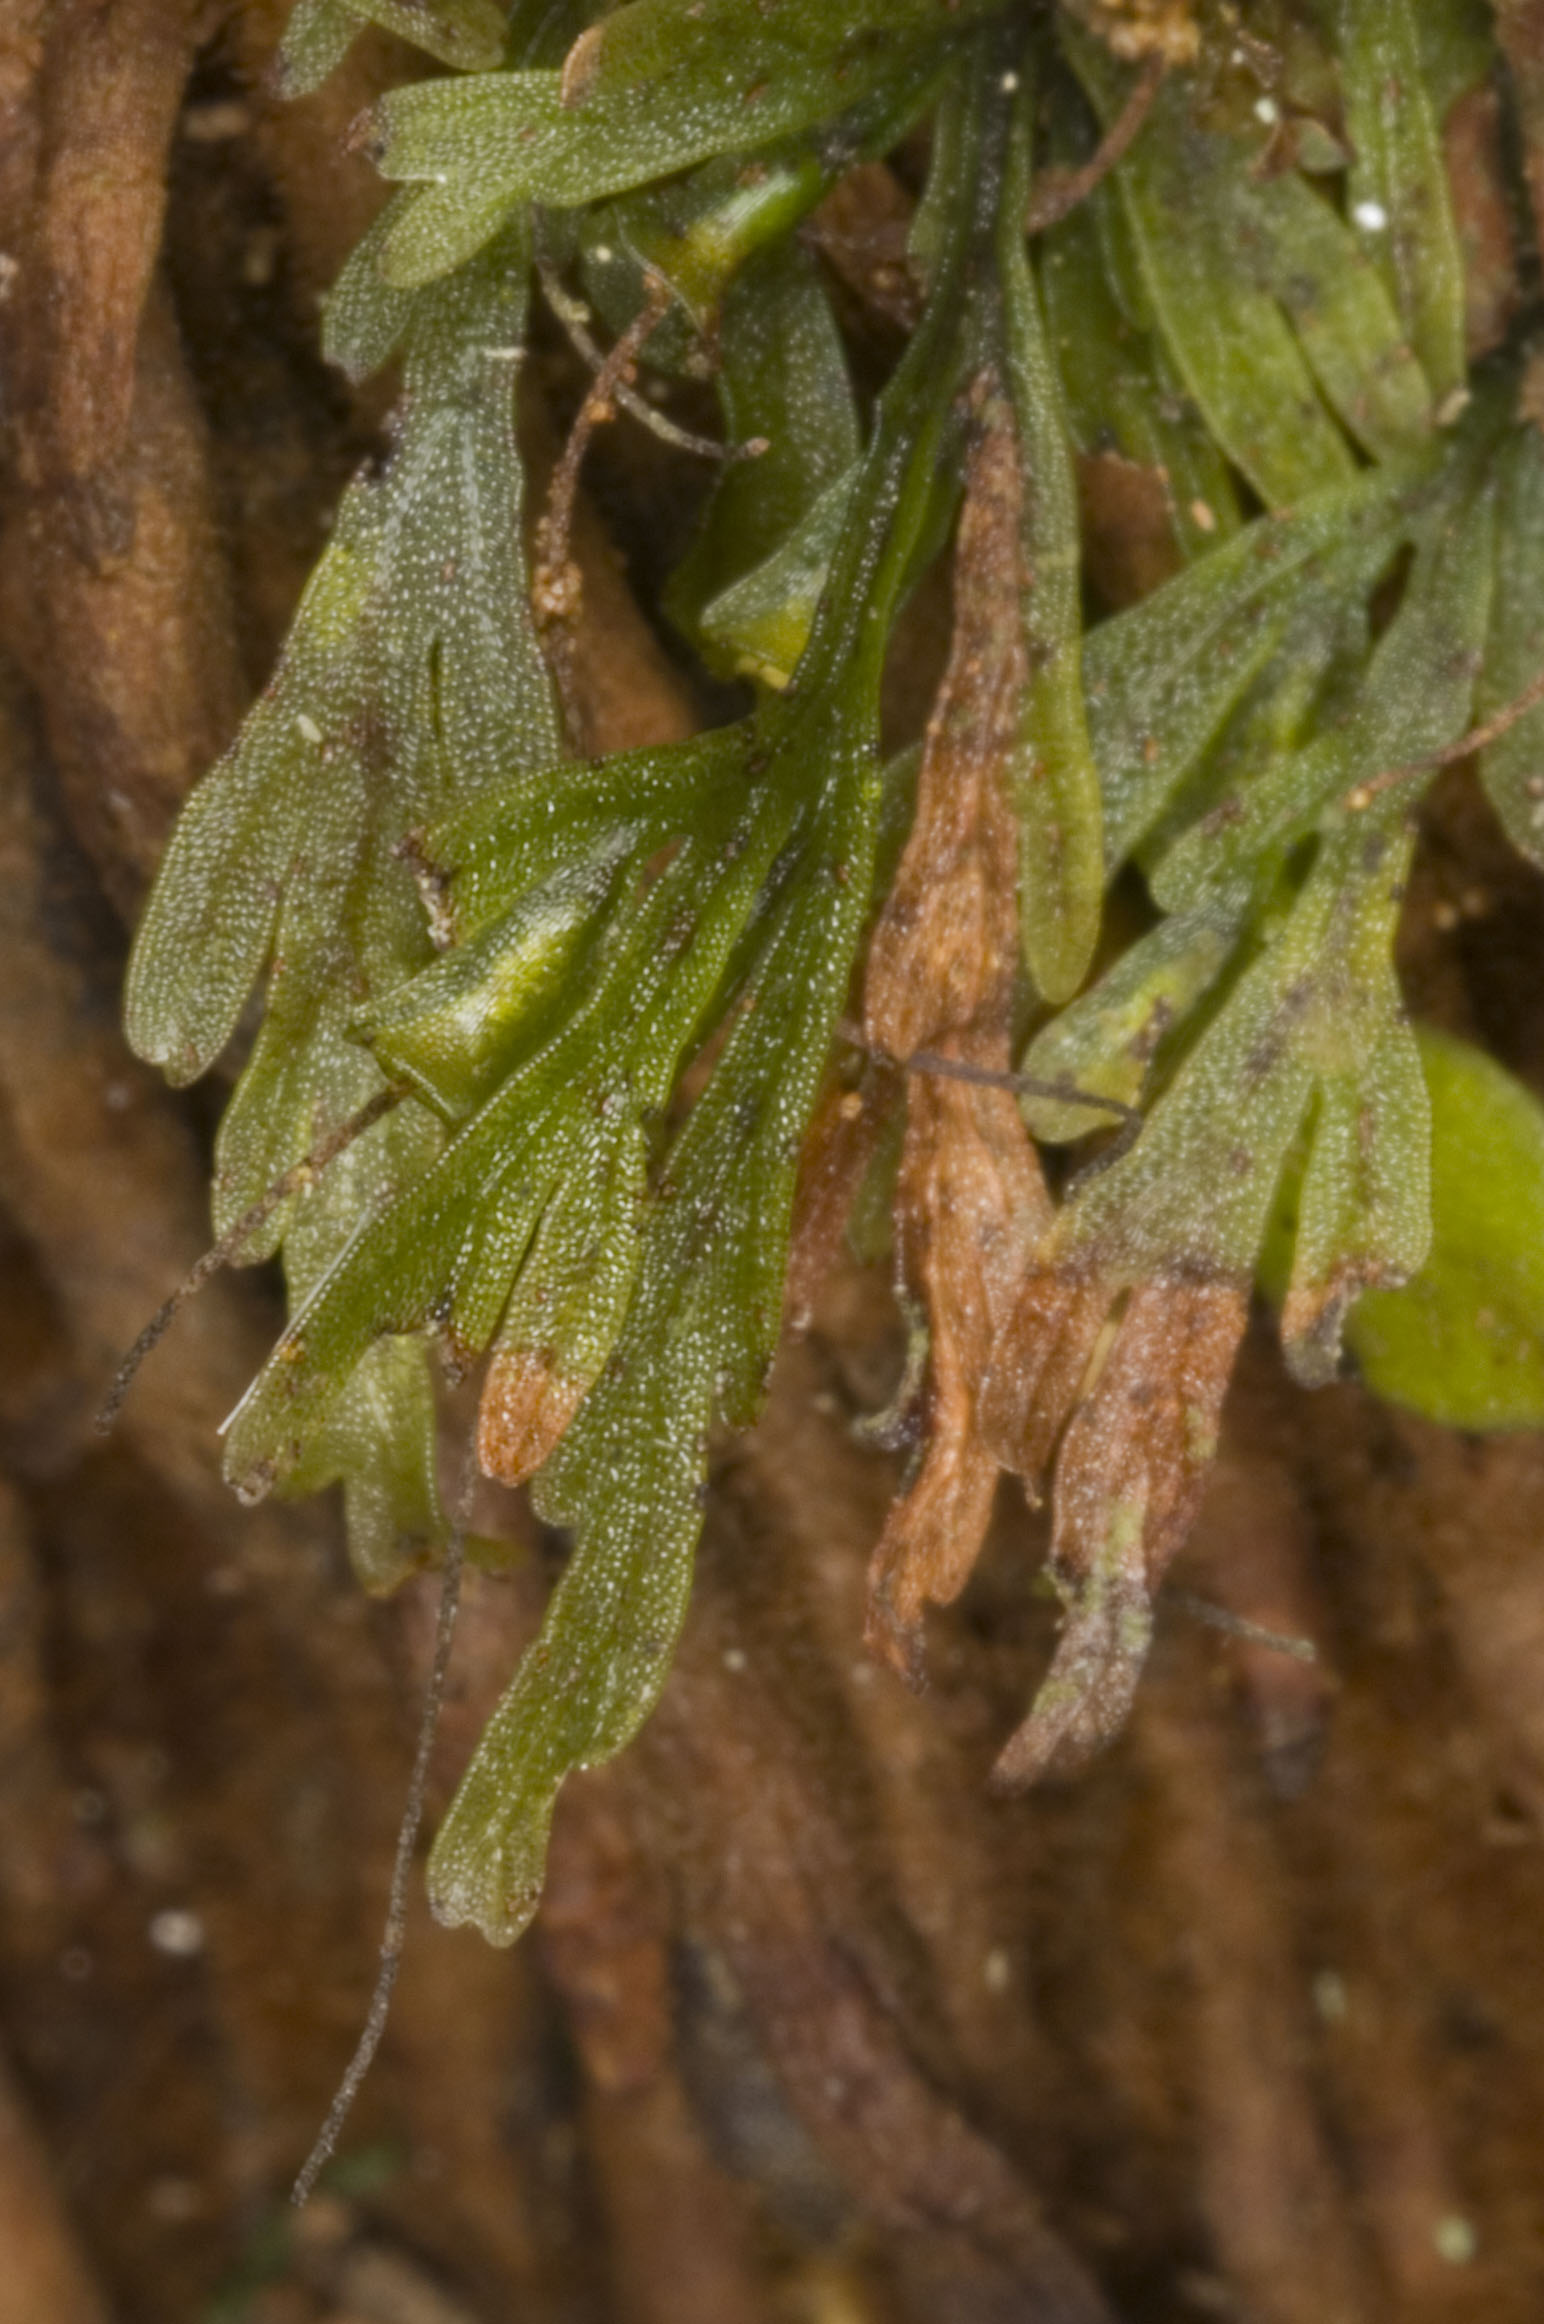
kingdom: Plantae
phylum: Tracheophyta
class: Polypodiopsida
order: Hymenophyllales
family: Hymenophyllaceae
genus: Abrodictyum
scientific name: Abrodictyum caudatum
